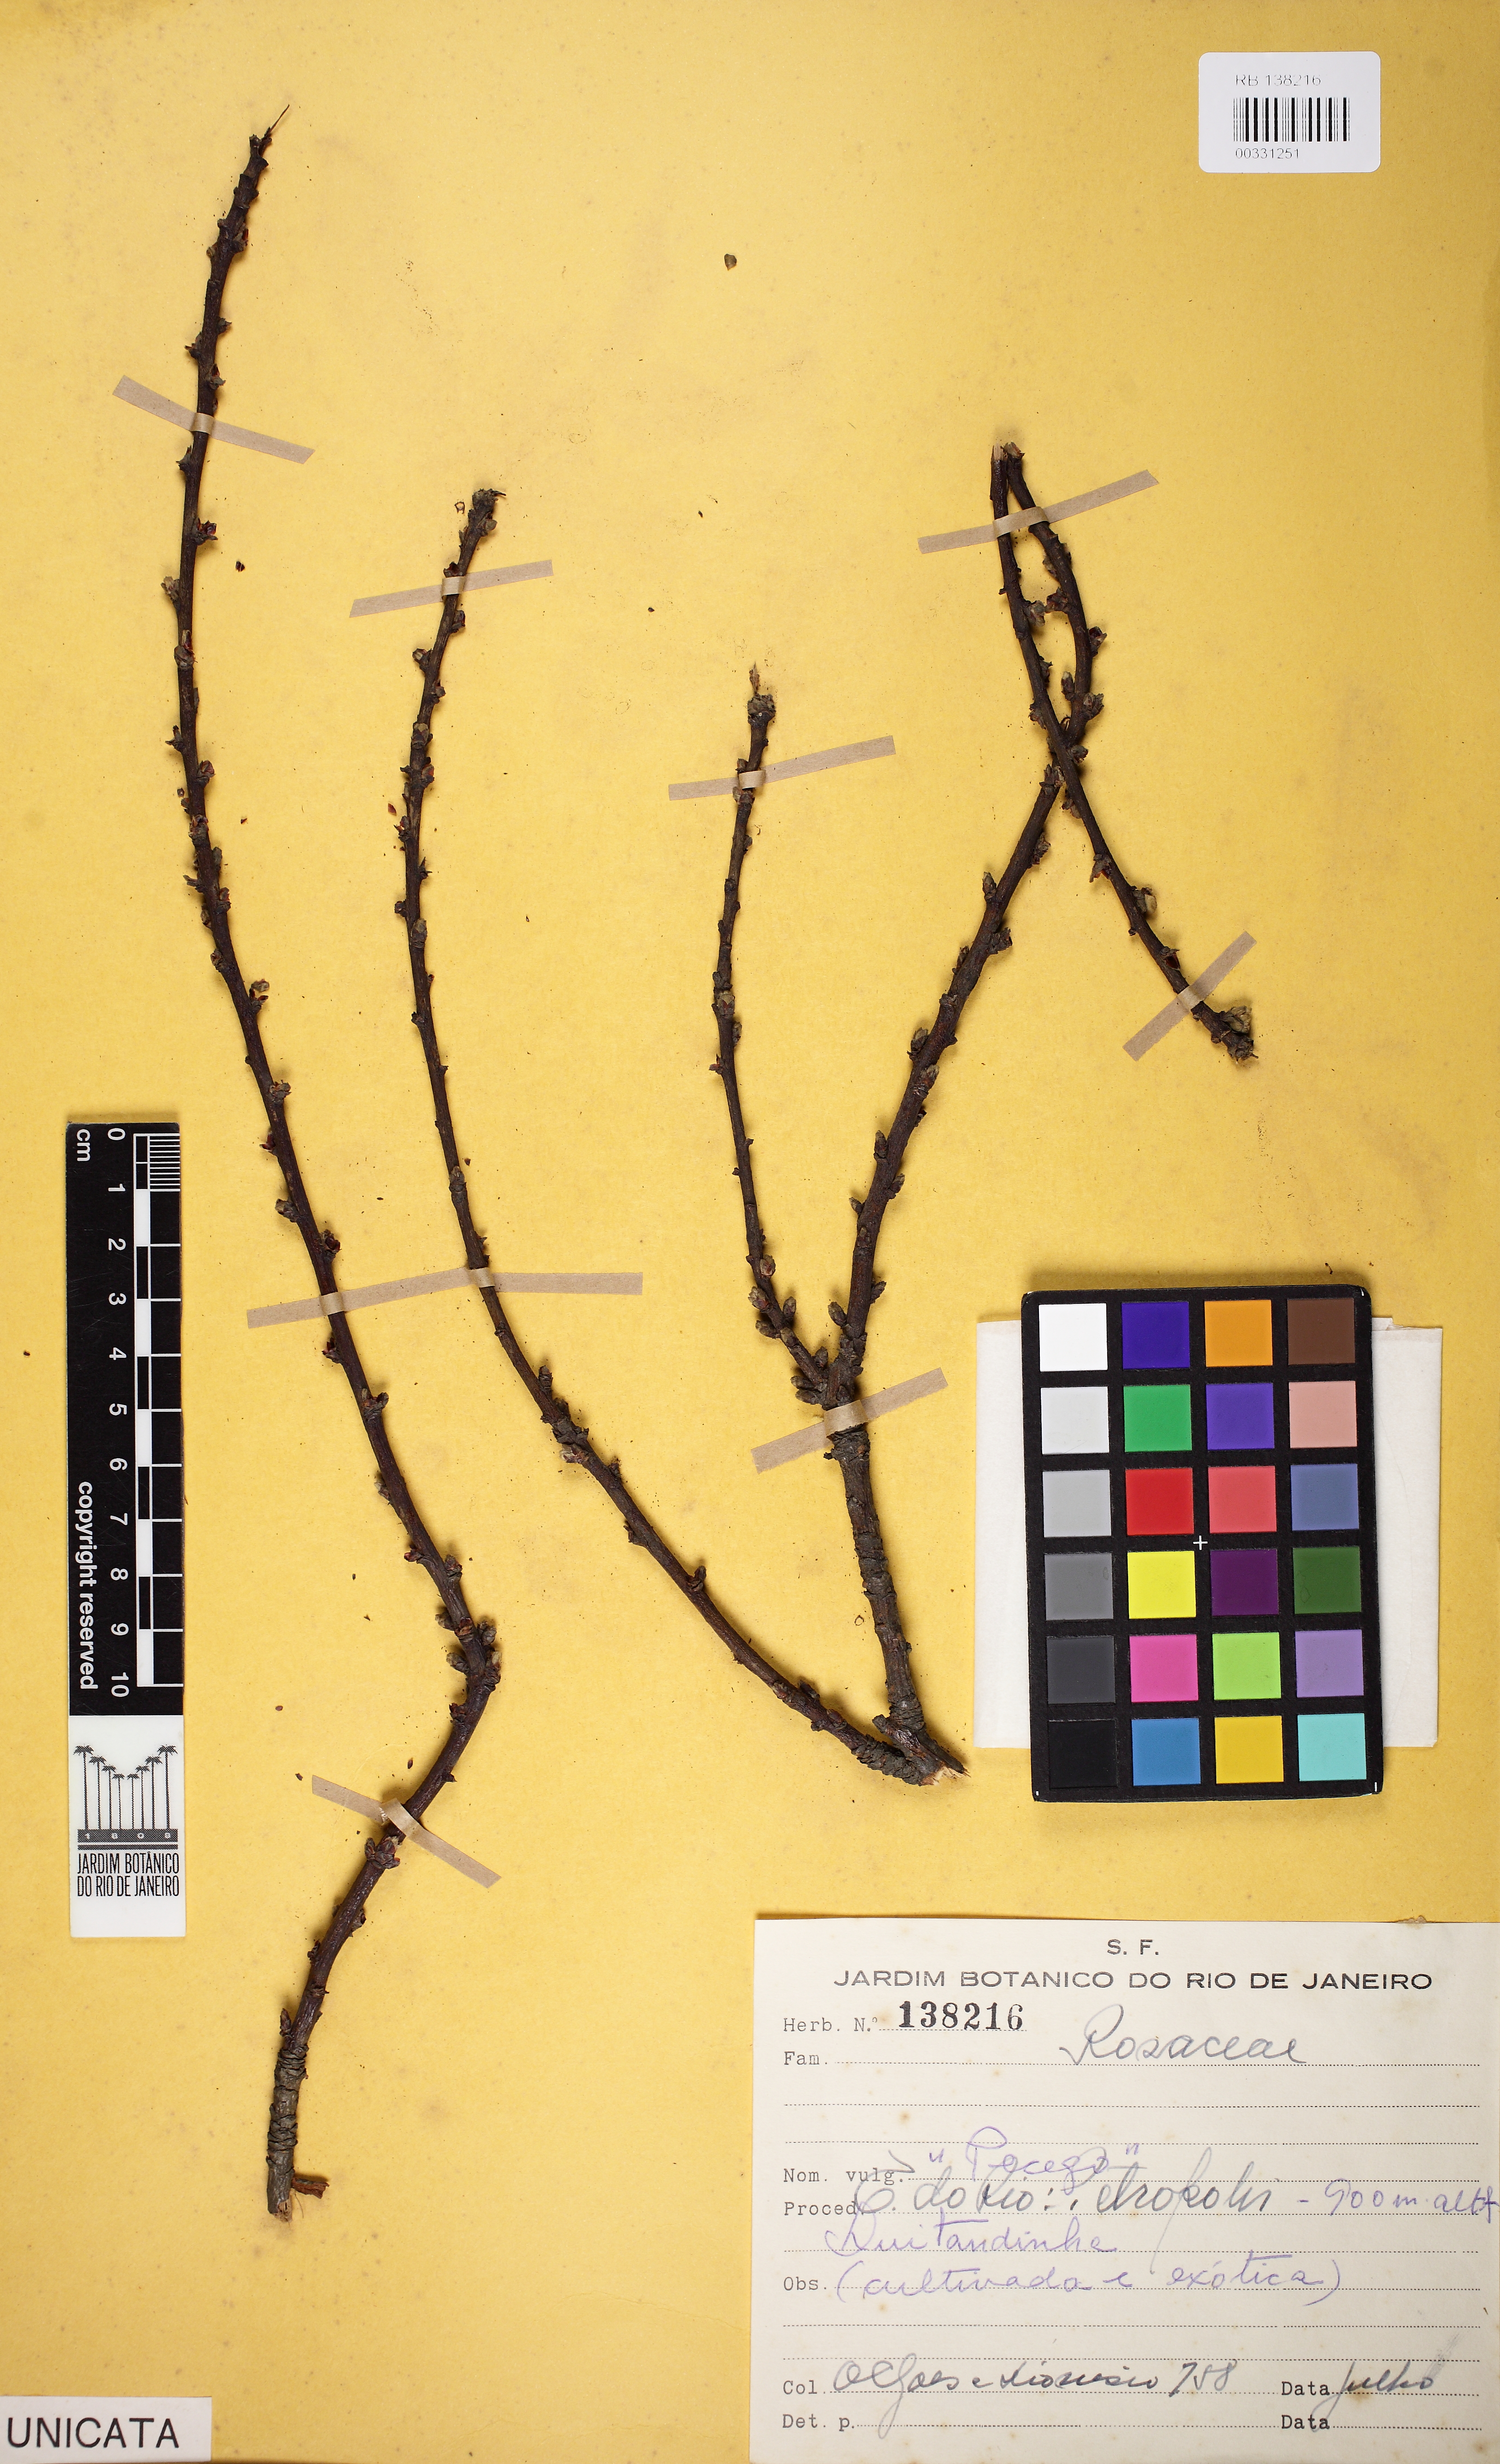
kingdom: Plantae
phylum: Tracheophyta
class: Magnoliopsida
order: Rosales
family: Rosaceae
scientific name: Rosaceae
